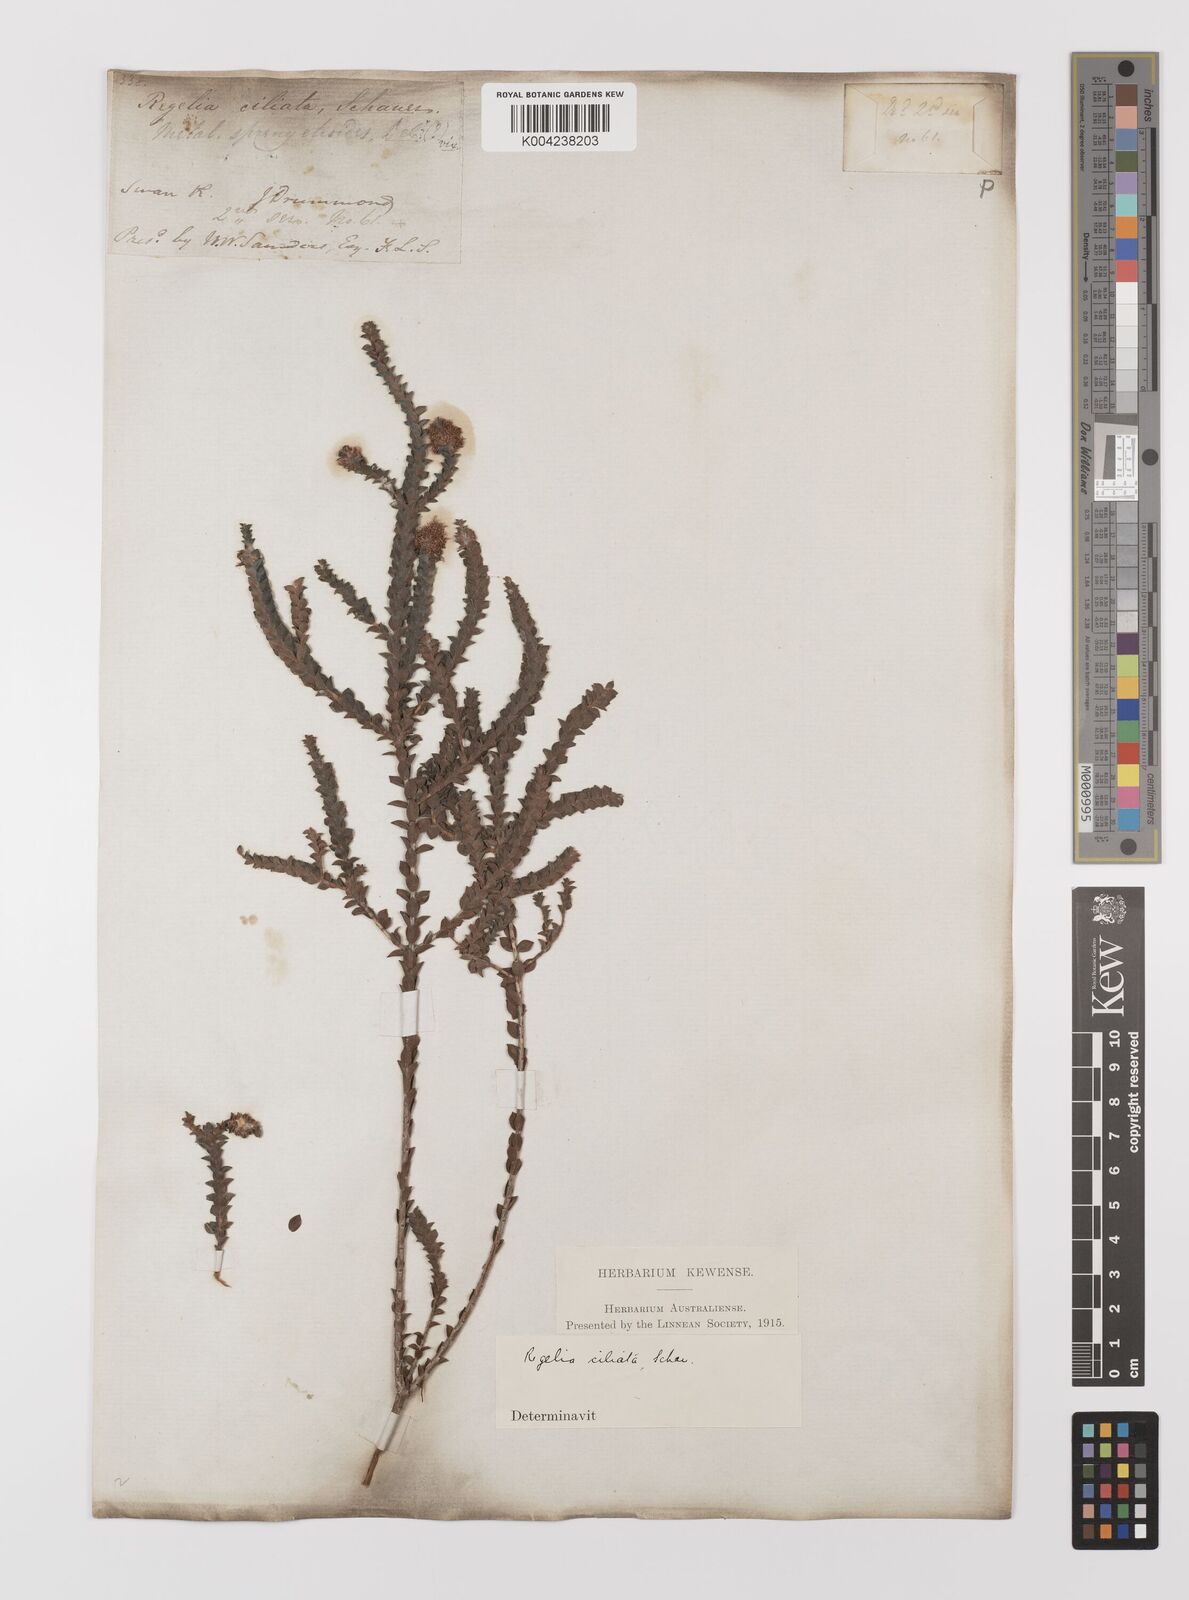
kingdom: Plantae
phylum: Tracheophyta
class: Magnoliopsida
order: Myrtales
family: Myrtaceae
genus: Melaleuca
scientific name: Melaleuca crossota
